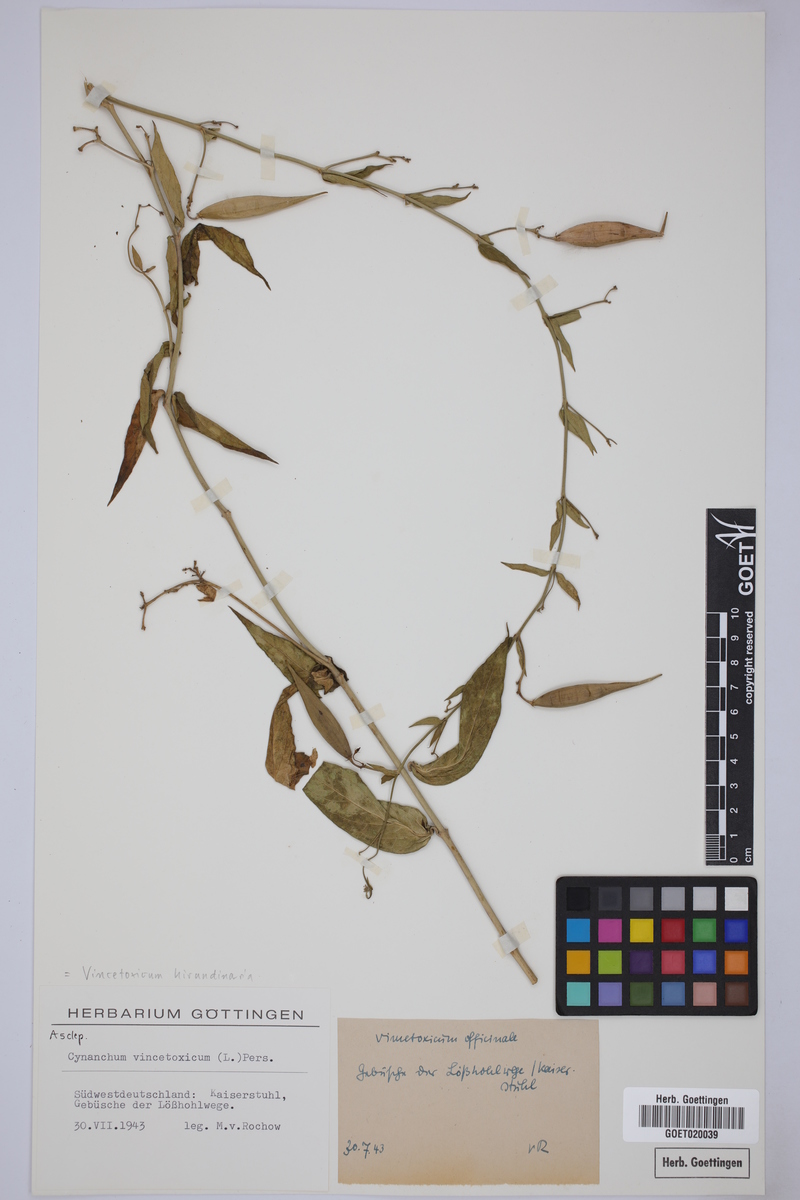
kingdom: Plantae
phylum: Tracheophyta
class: Magnoliopsida
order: Gentianales
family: Apocynaceae
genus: Vincetoxicum
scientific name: Vincetoxicum hirundinaria
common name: White swallowwort
